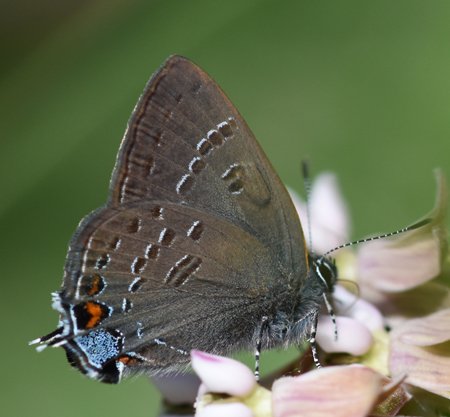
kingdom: Animalia
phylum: Arthropoda
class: Insecta
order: Lepidoptera
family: Lycaenidae
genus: Satyrium
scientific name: Satyrium calanus
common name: Banded Hairstreak
